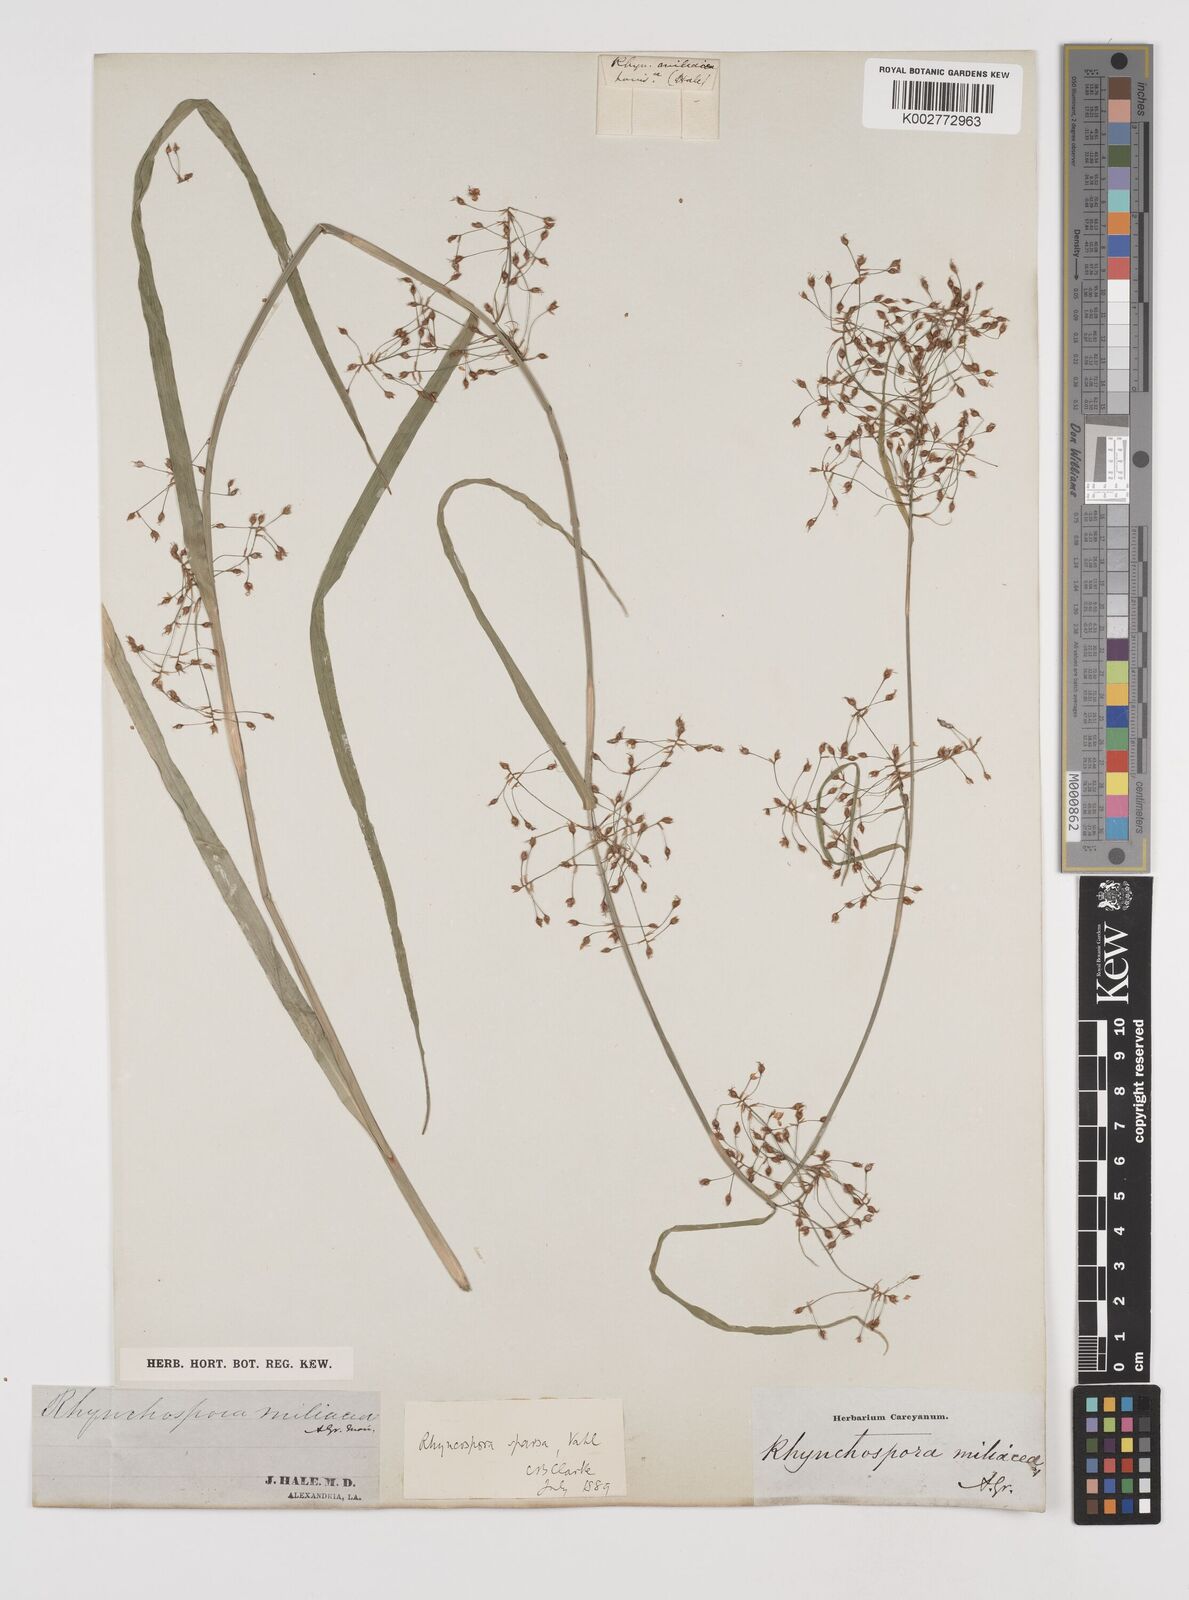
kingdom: Plantae
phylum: Tracheophyta
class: Liliopsida
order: Poales
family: Cyperaceae
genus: Rhynchospora
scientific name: Rhynchospora miliacea
